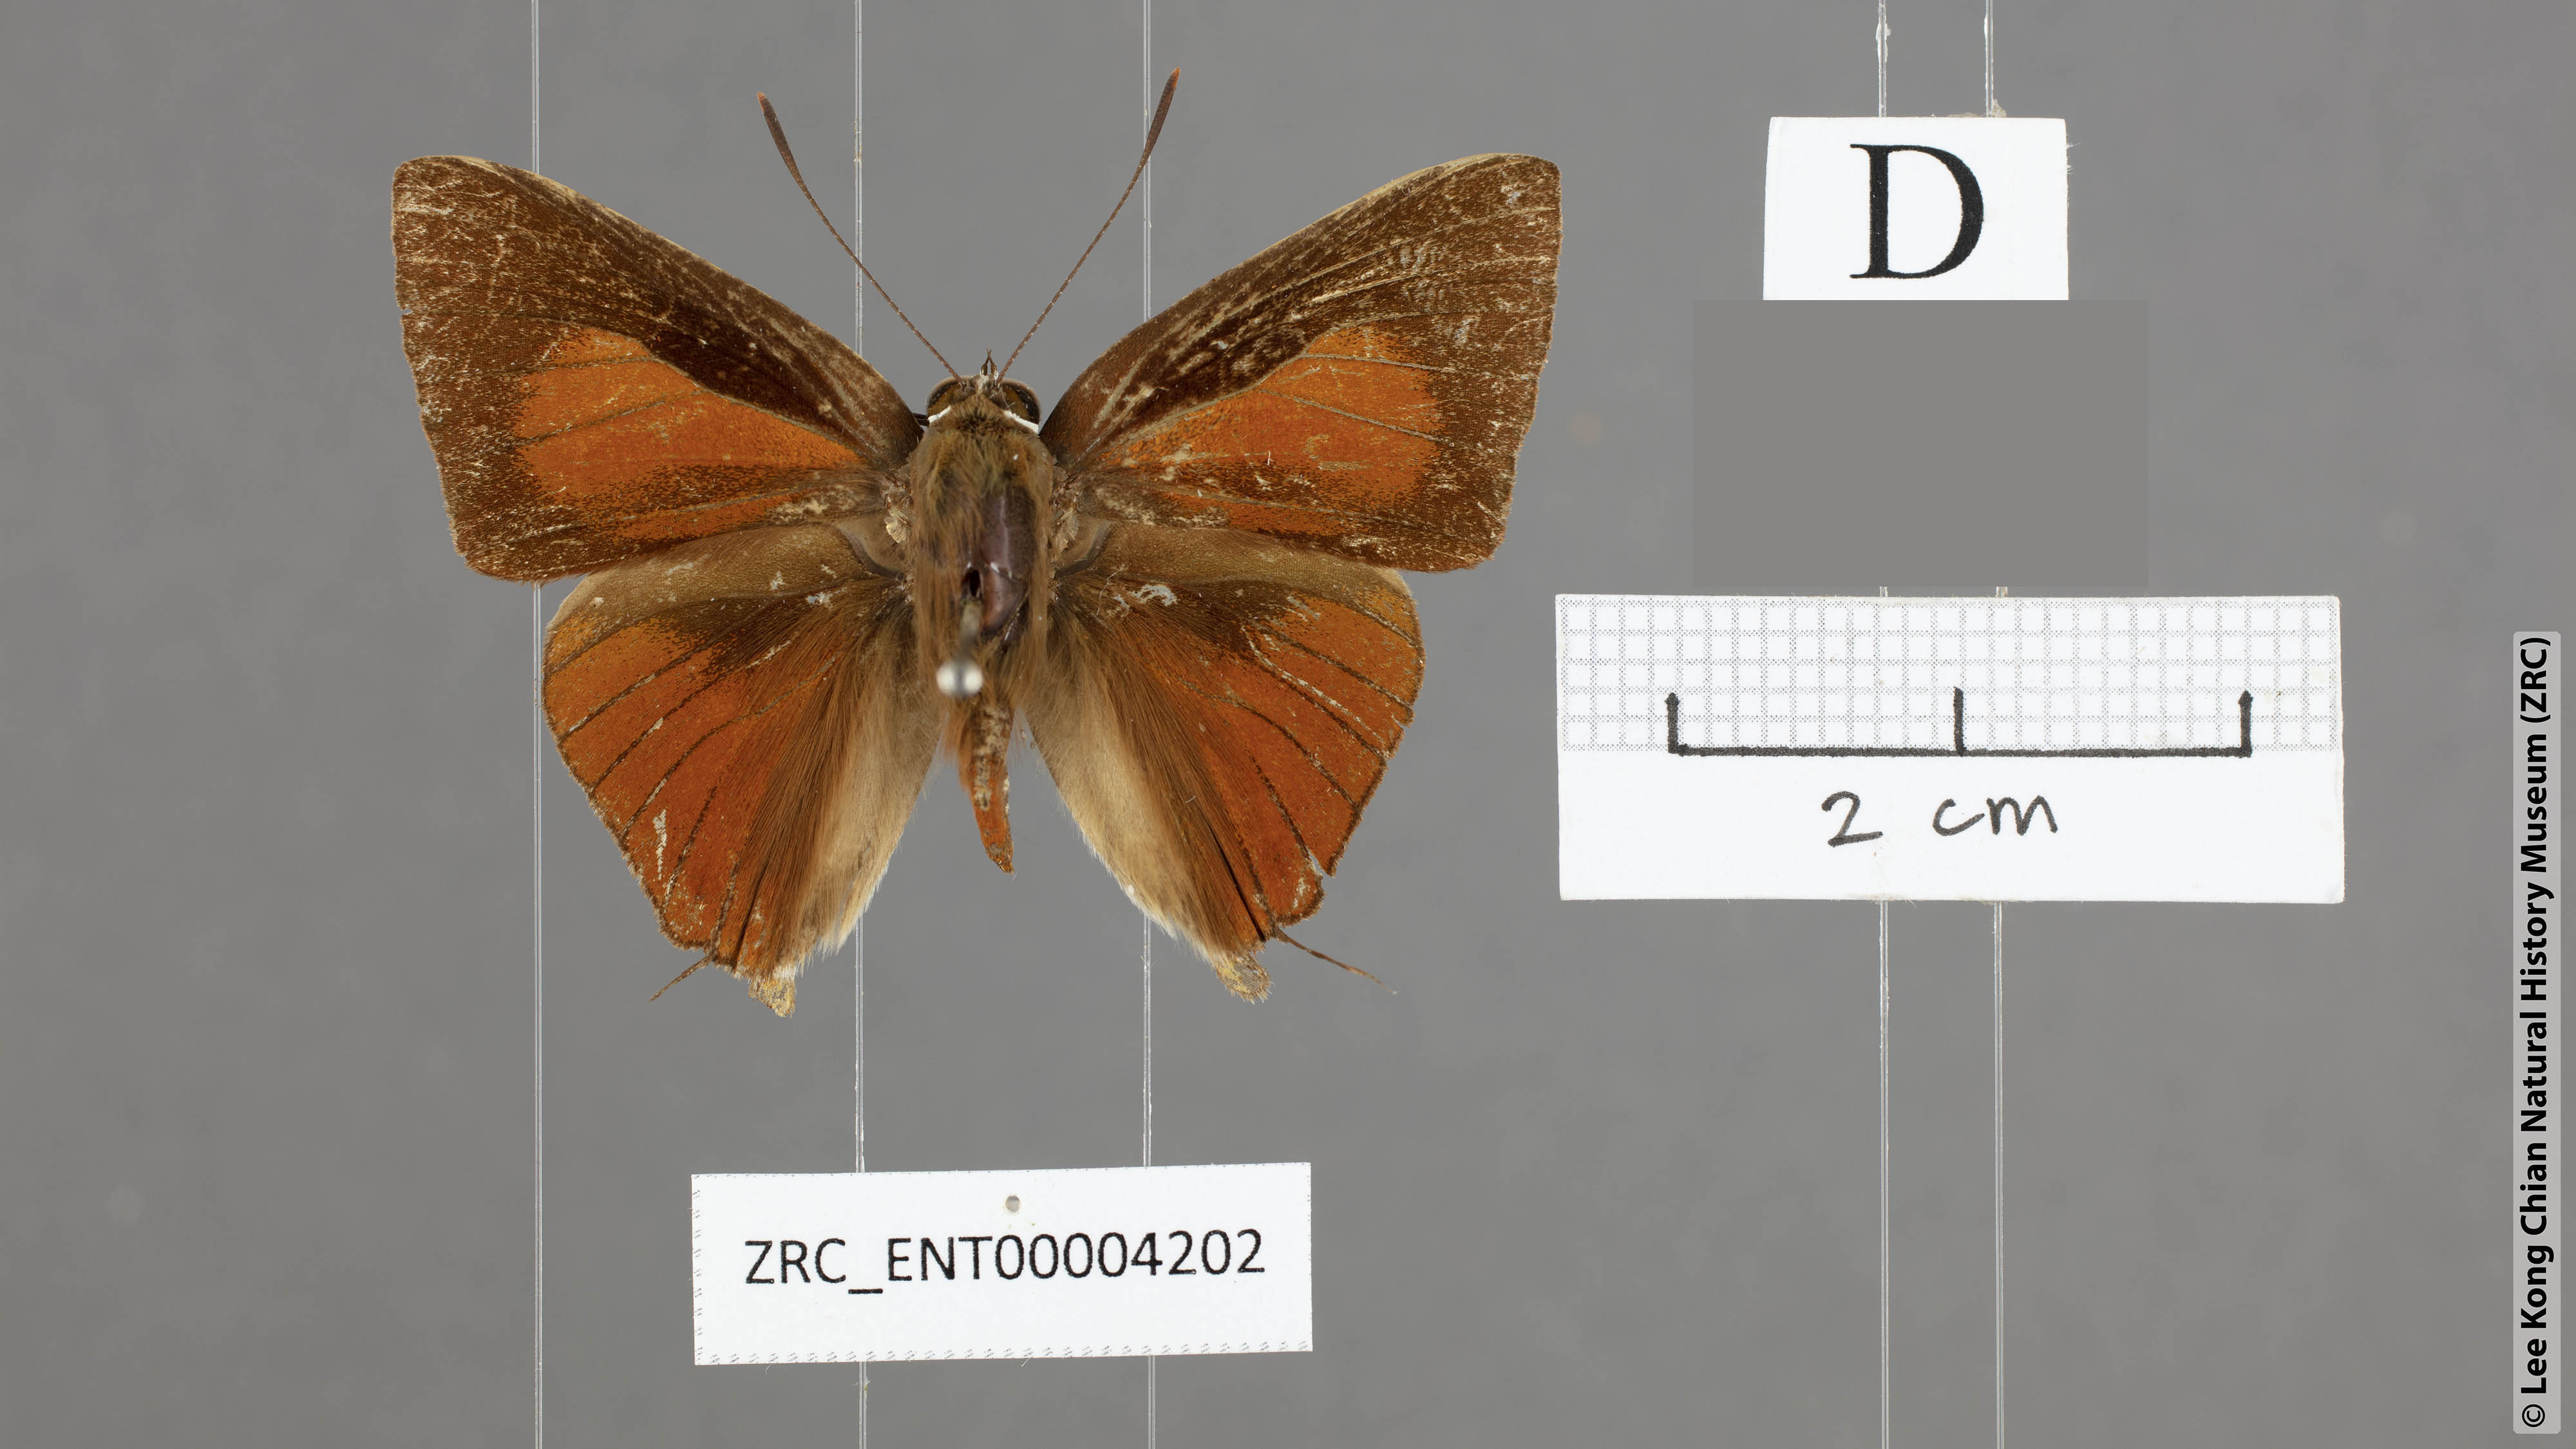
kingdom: Animalia
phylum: Arthropoda
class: Insecta
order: Lepidoptera
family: Lycaenidae
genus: Deudorix
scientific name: Deudorix staudingeri
